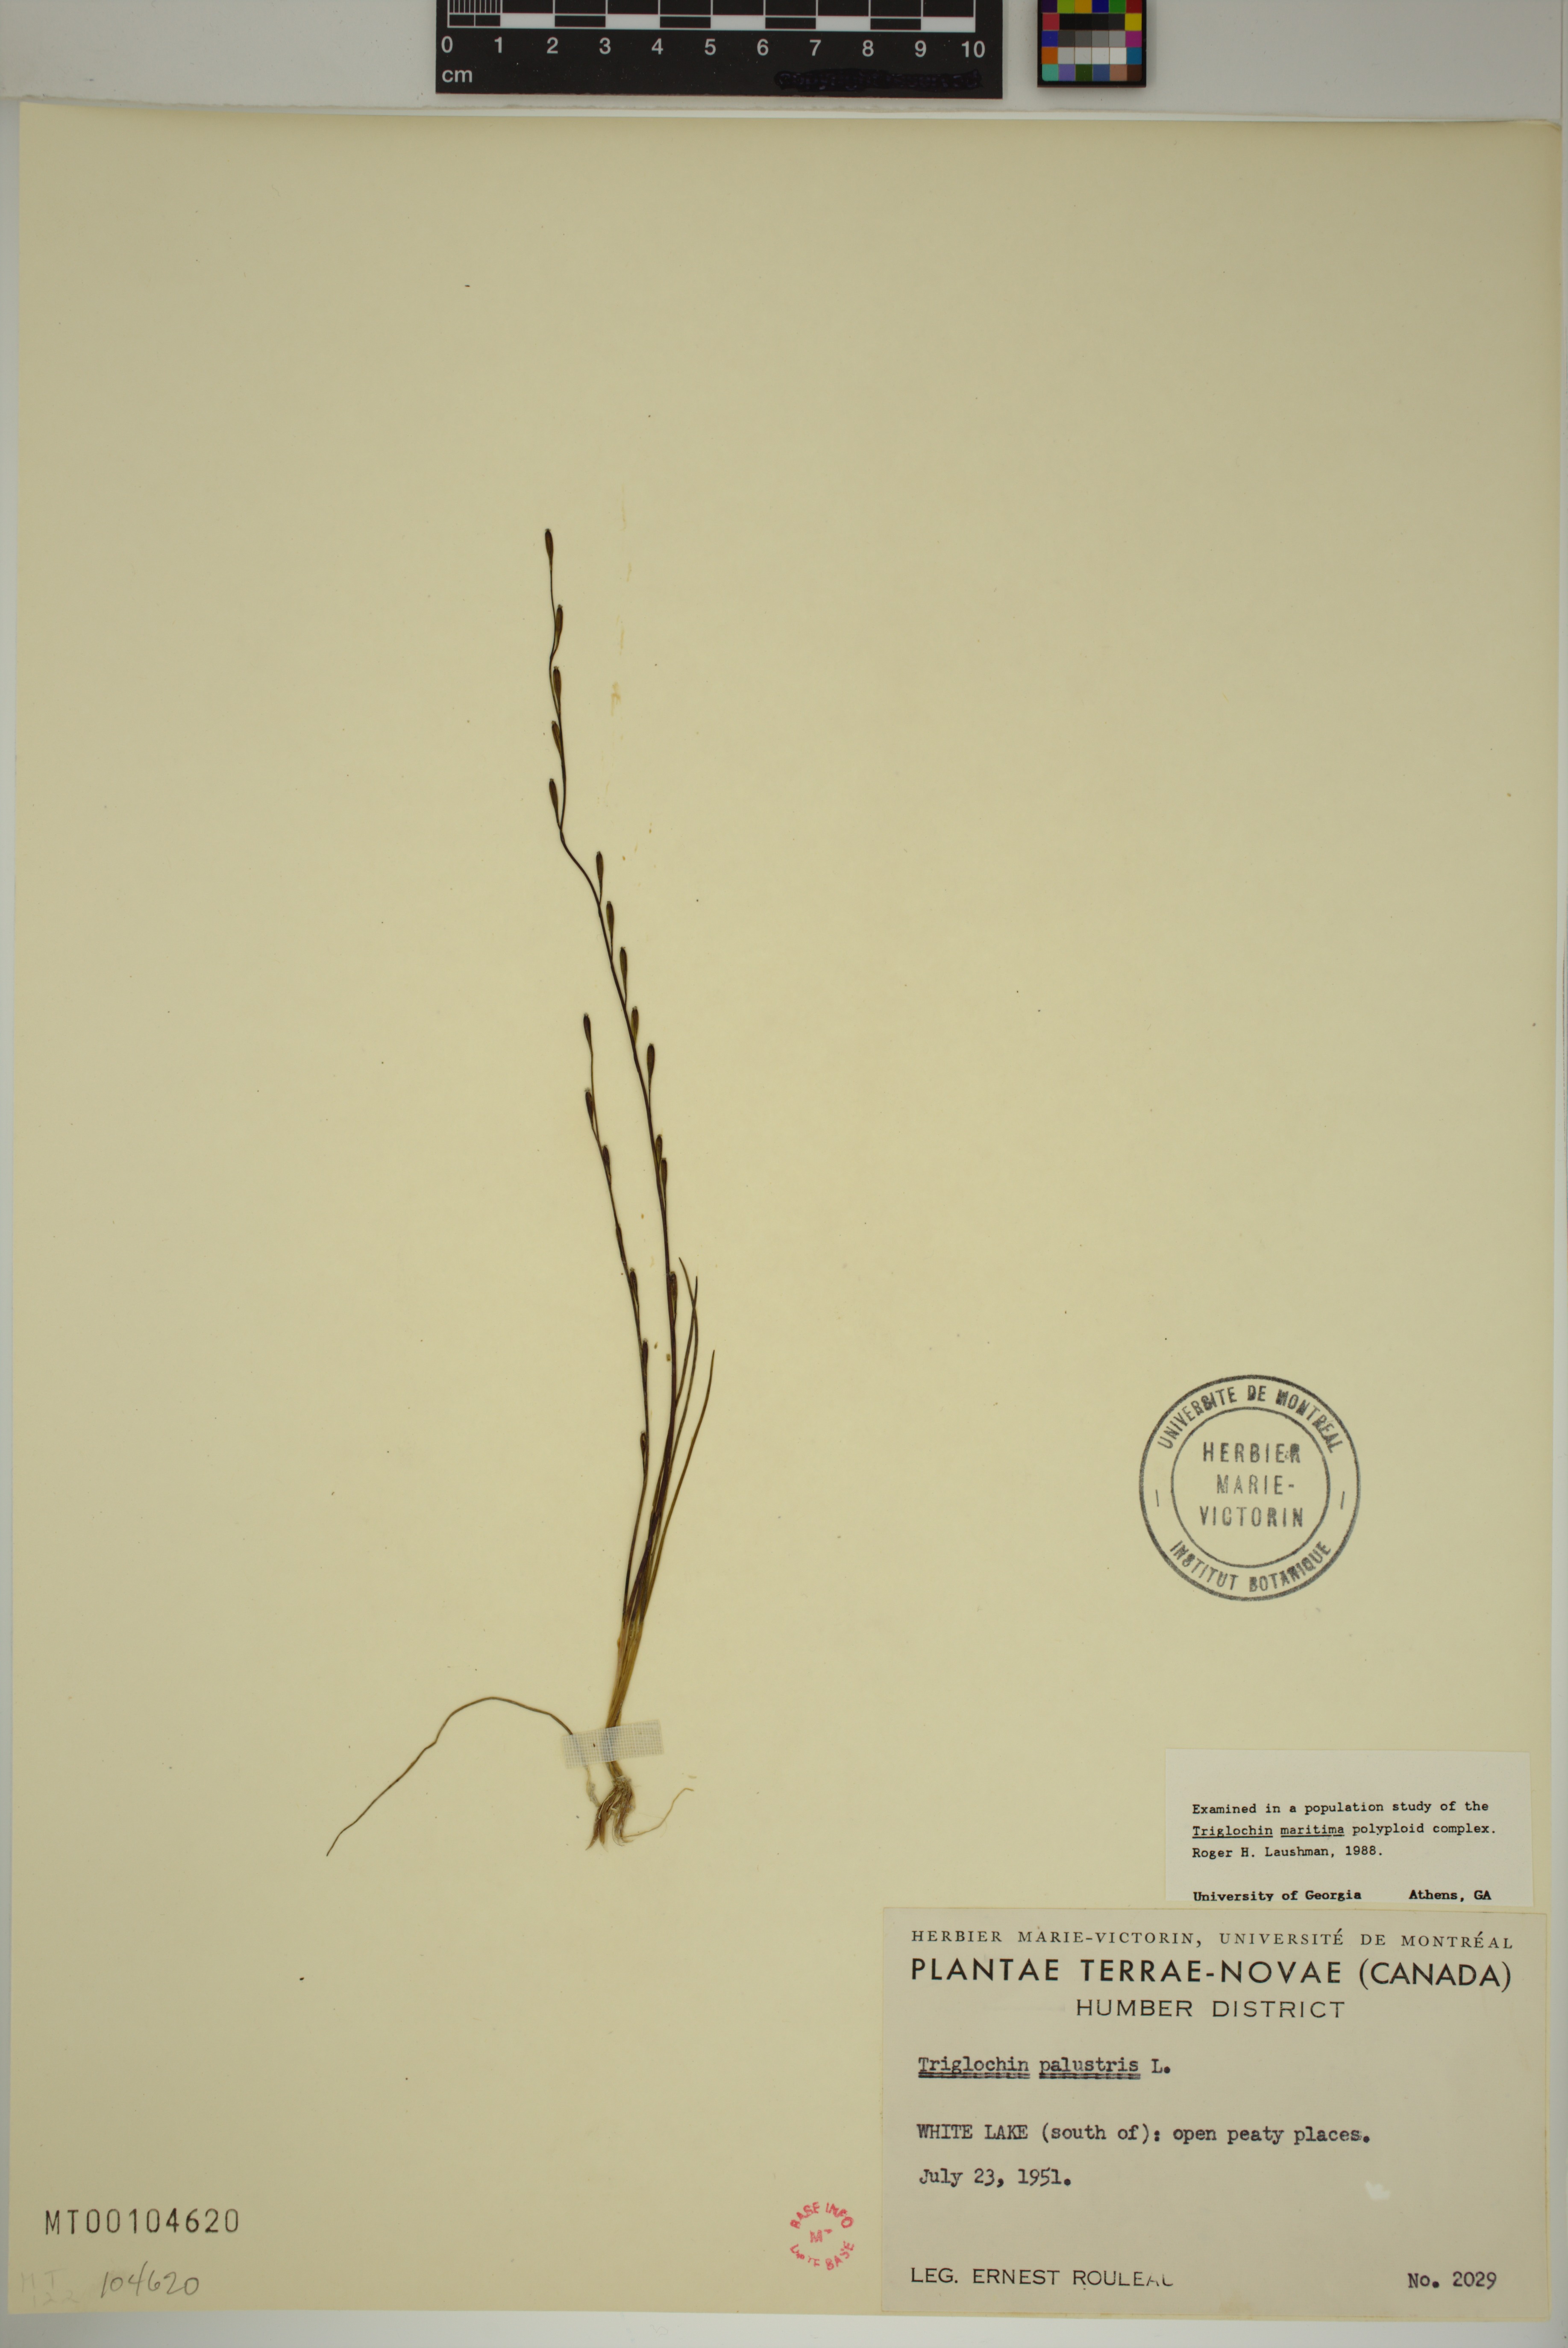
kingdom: Plantae
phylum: Tracheophyta
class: Liliopsida
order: Alismatales
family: Juncaginaceae
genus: Triglochin
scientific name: Triglochin palustris
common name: Marsh arrowgrass
